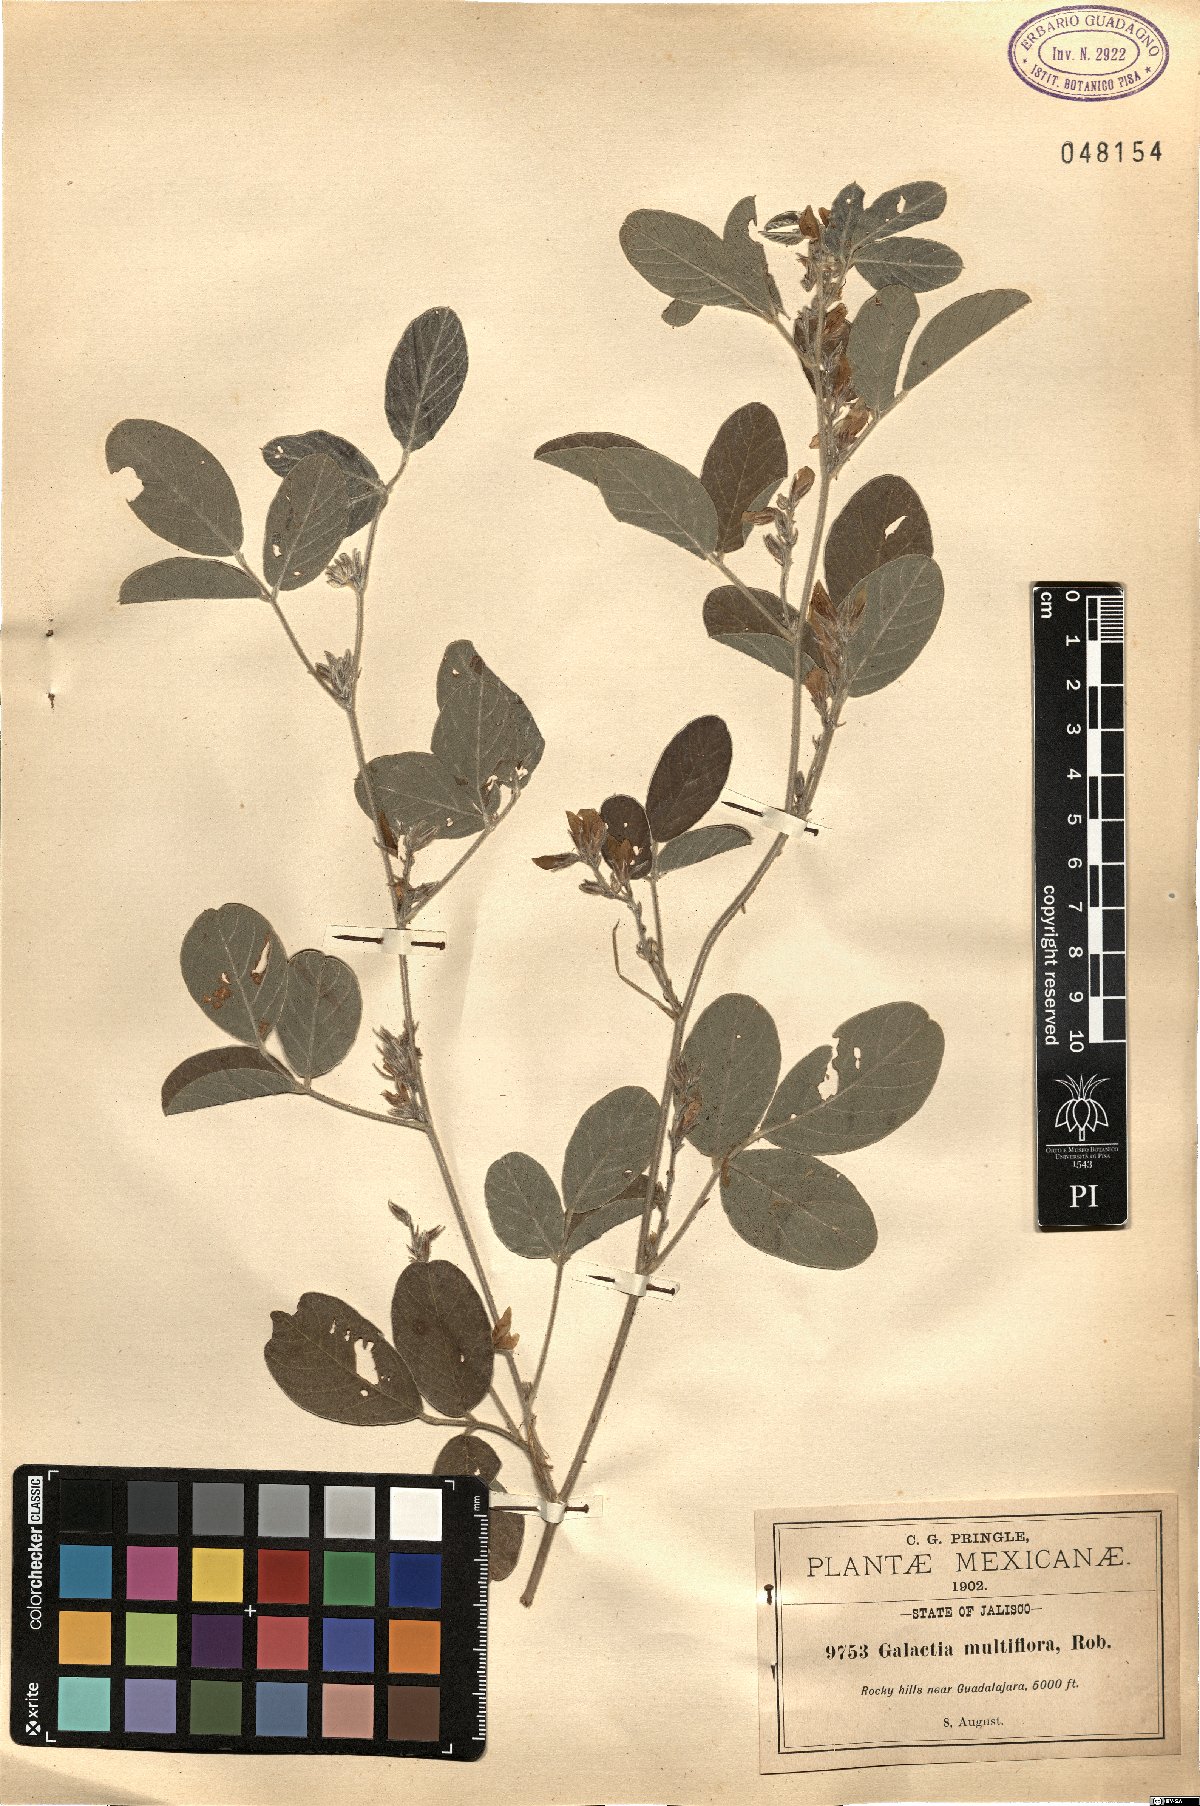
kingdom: Plantae
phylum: Tracheophyta
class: Magnoliopsida
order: Fabales
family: Fabaceae
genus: Galactia
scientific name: Galactia multiflora
